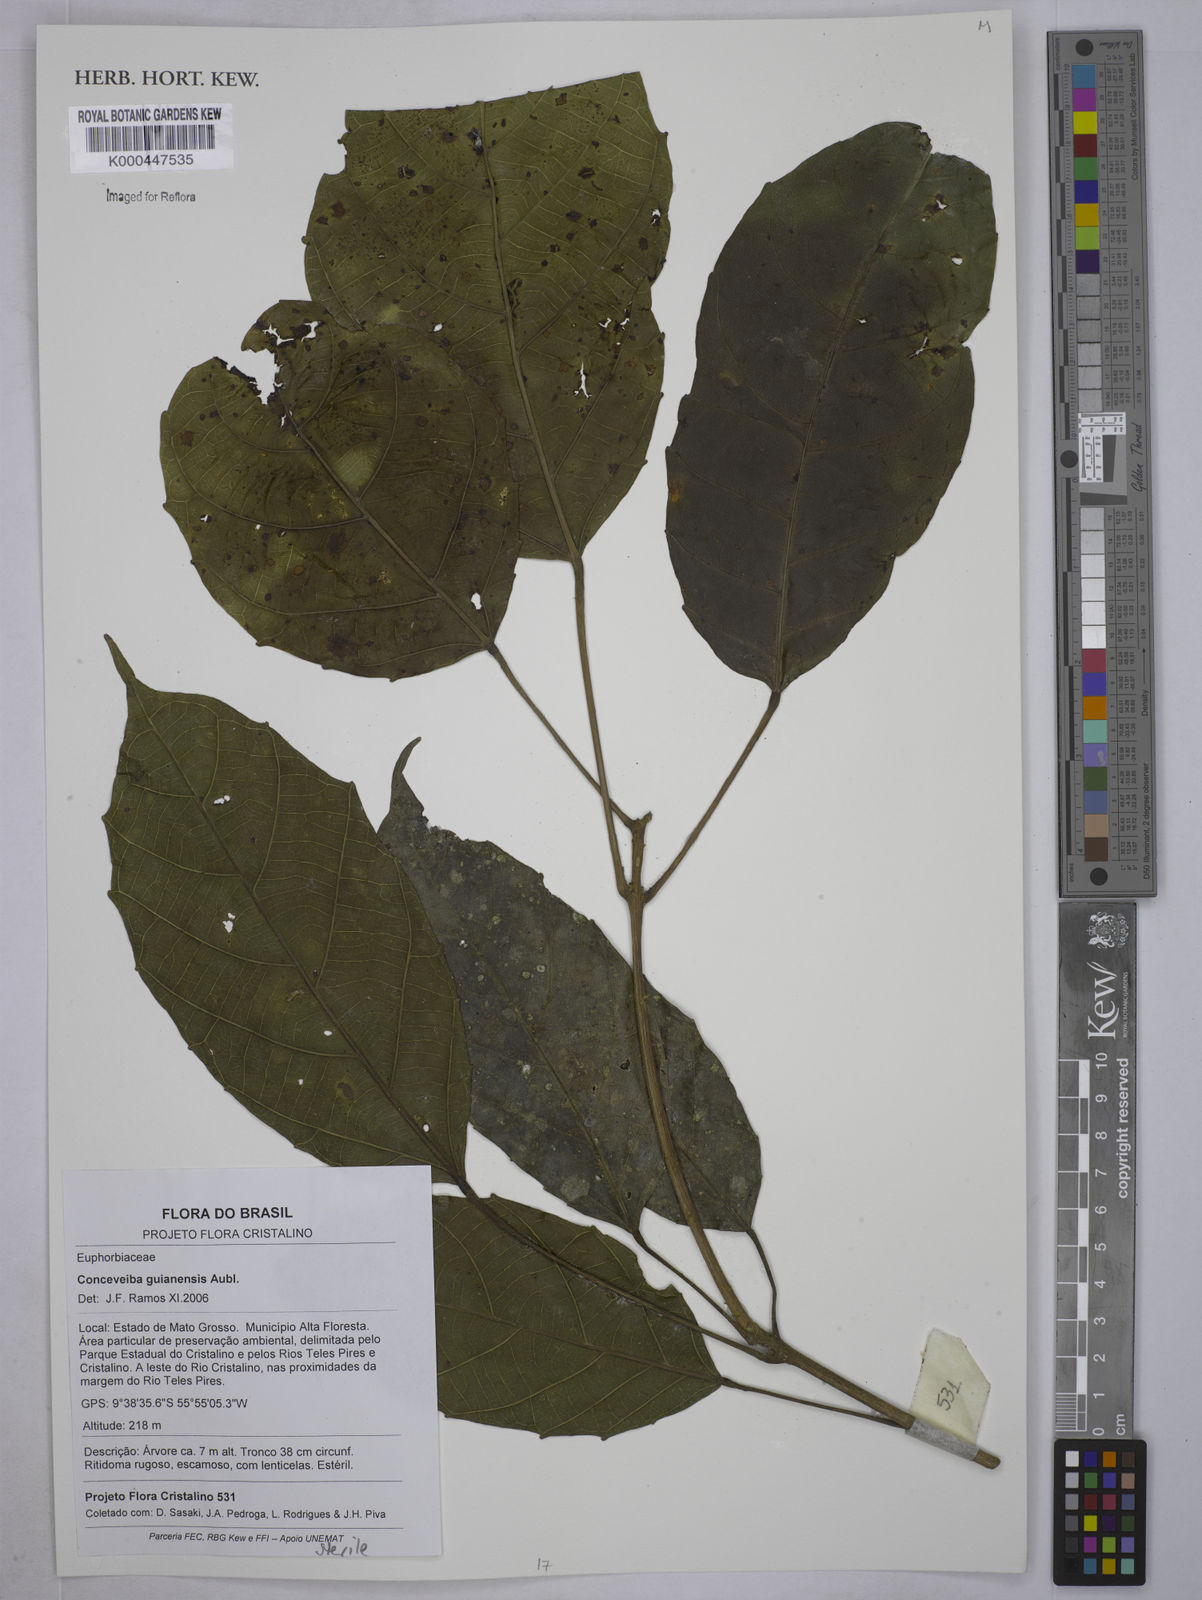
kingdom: Plantae
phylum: Tracheophyta
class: Magnoliopsida
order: Malpighiales
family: Euphorbiaceae
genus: Conceveiba
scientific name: Conceveiba guianensis
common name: Poatoru
